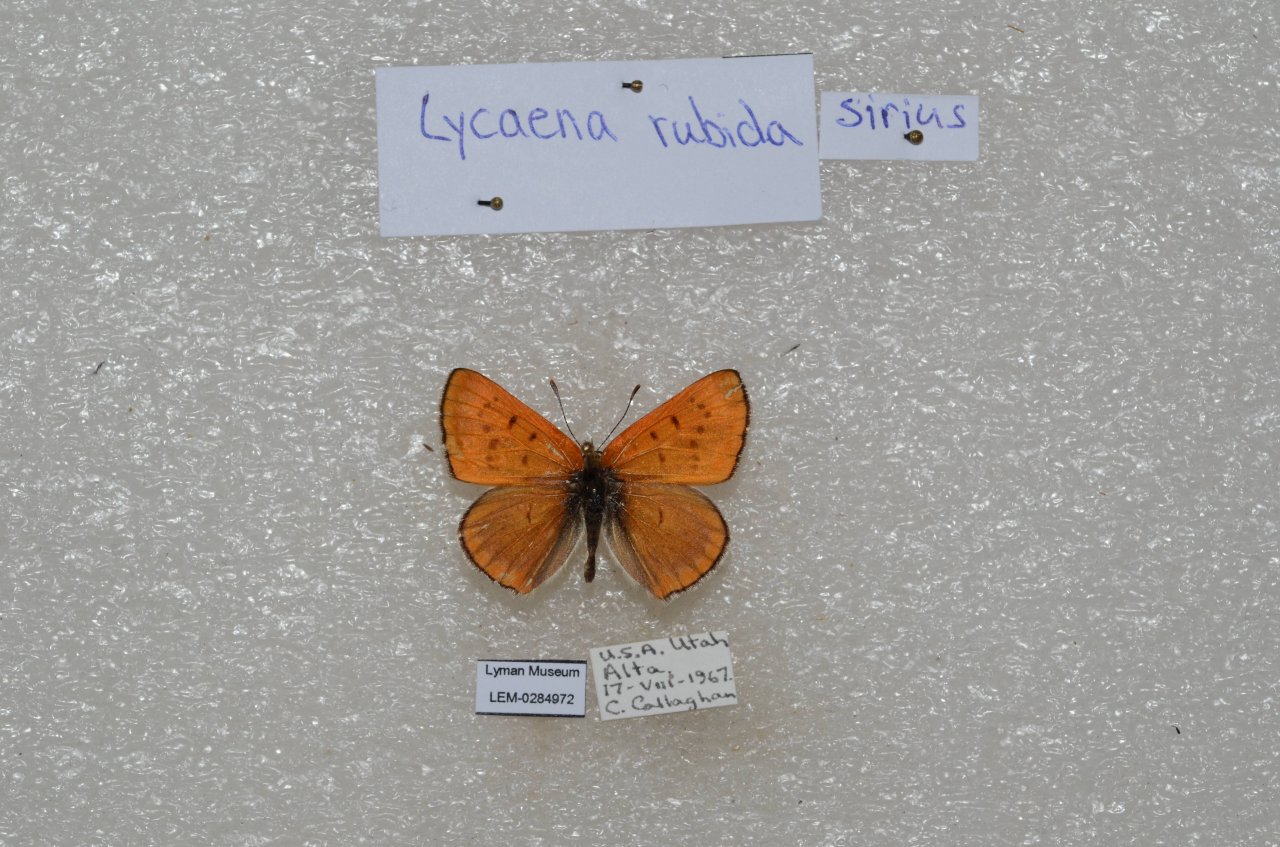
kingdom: Animalia
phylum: Arthropoda
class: Insecta
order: Lepidoptera
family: Sesiidae
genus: Sesia
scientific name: Sesia Lycaena rubidus
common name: Ruddy Copper
